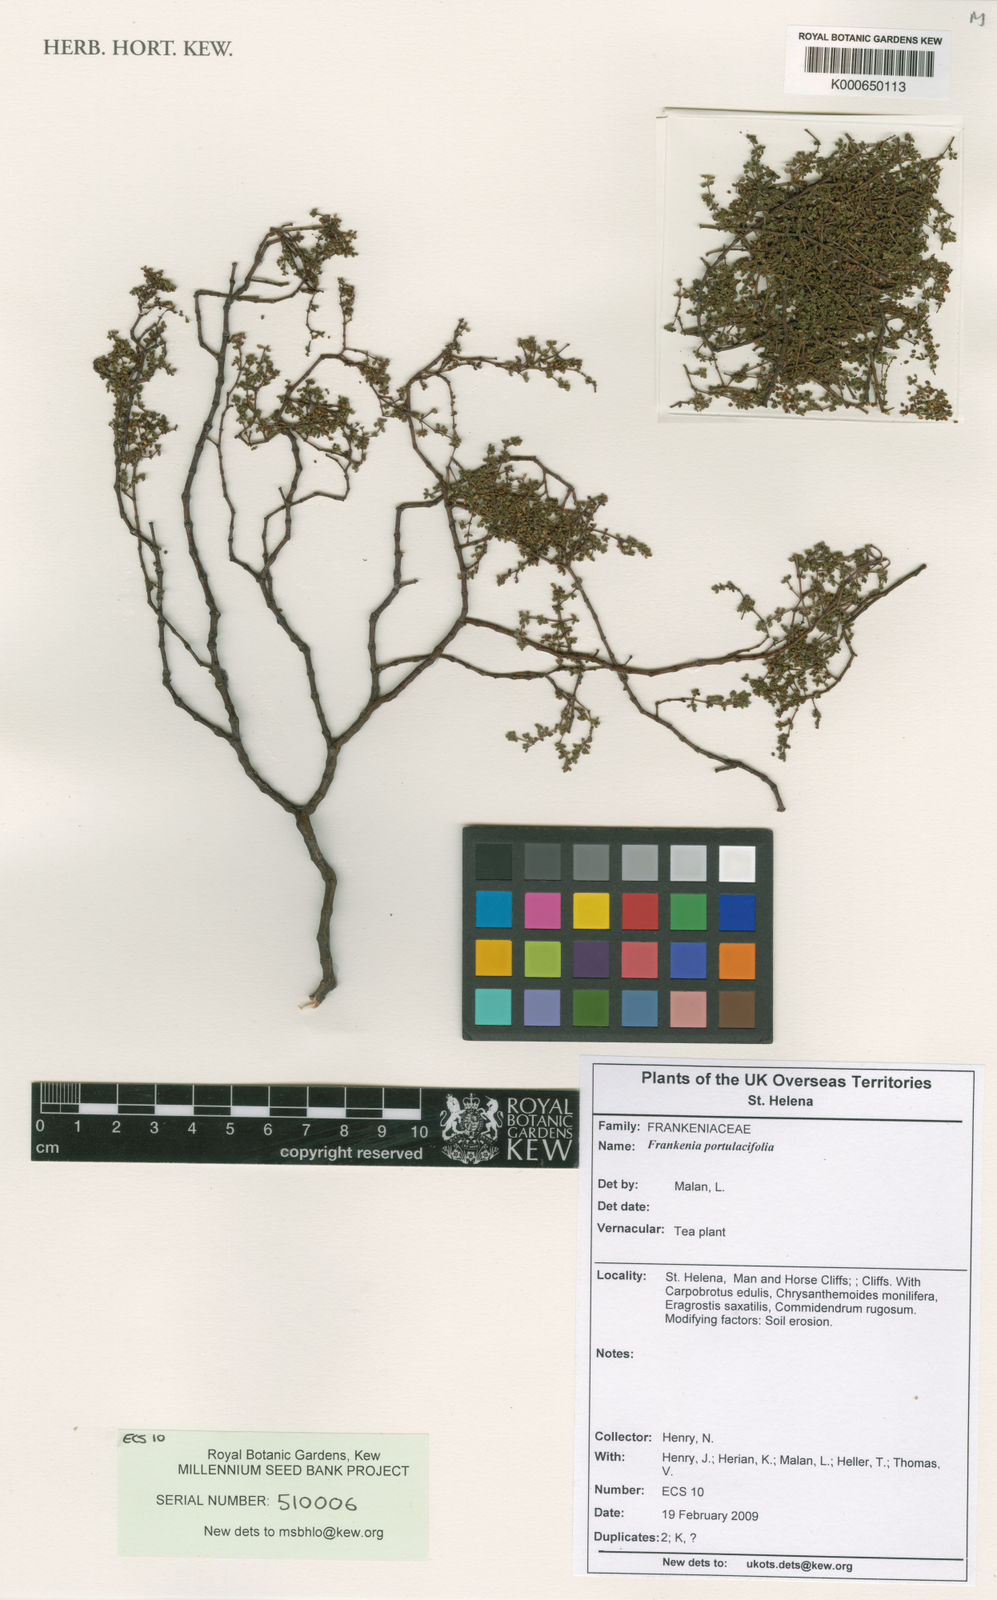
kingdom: Plantae
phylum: Tracheophyta
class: Magnoliopsida
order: Caryophyllales
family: Frankeniaceae
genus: Frankenia
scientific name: Frankenia portulacifolia
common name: St helena tea plant
